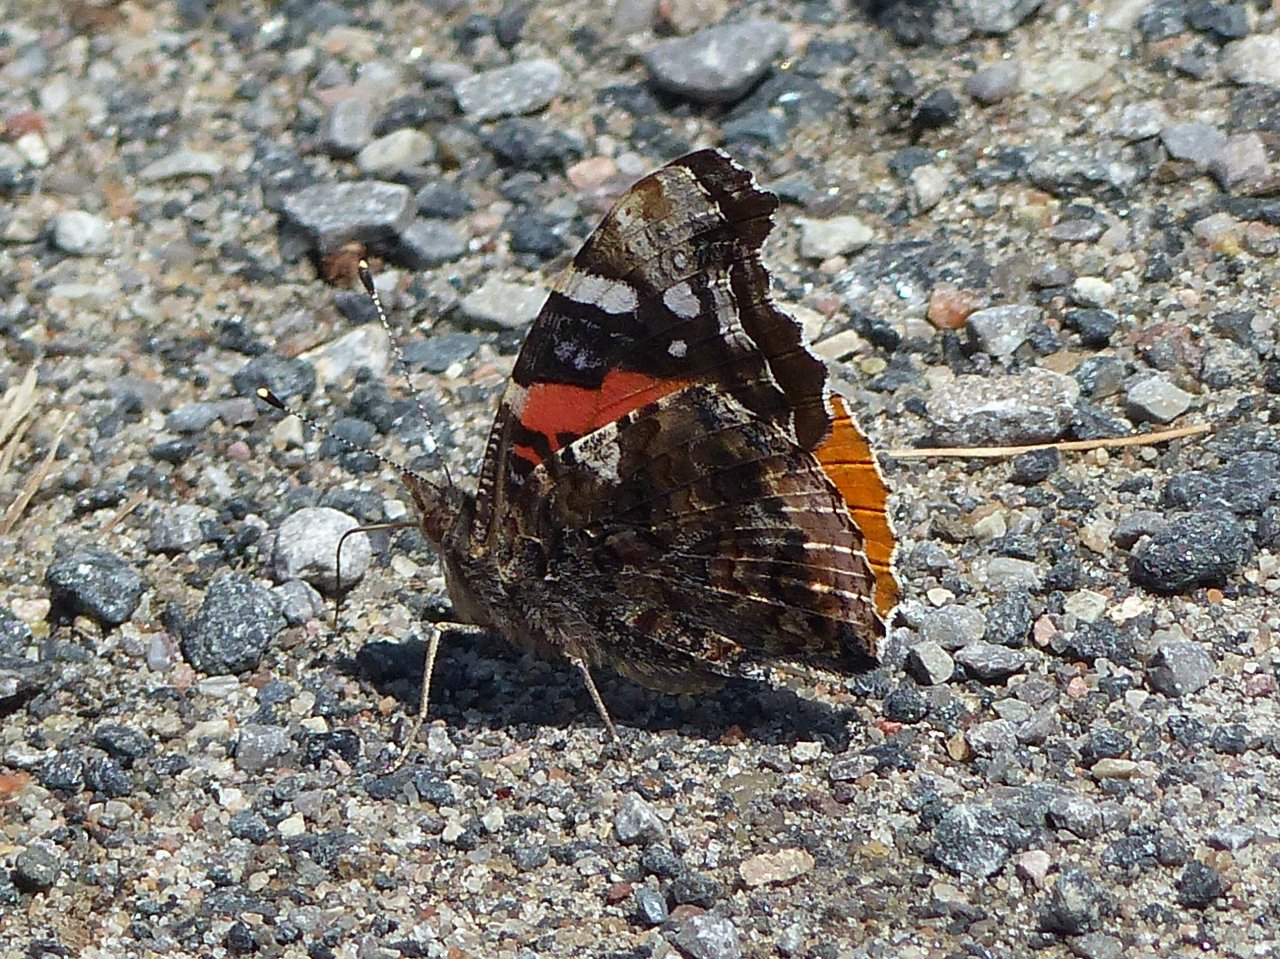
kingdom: Animalia
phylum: Arthropoda
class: Insecta
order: Lepidoptera
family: Nymphalidae
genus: Vanessa
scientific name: Vanessa atalanta
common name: Red Admiral
